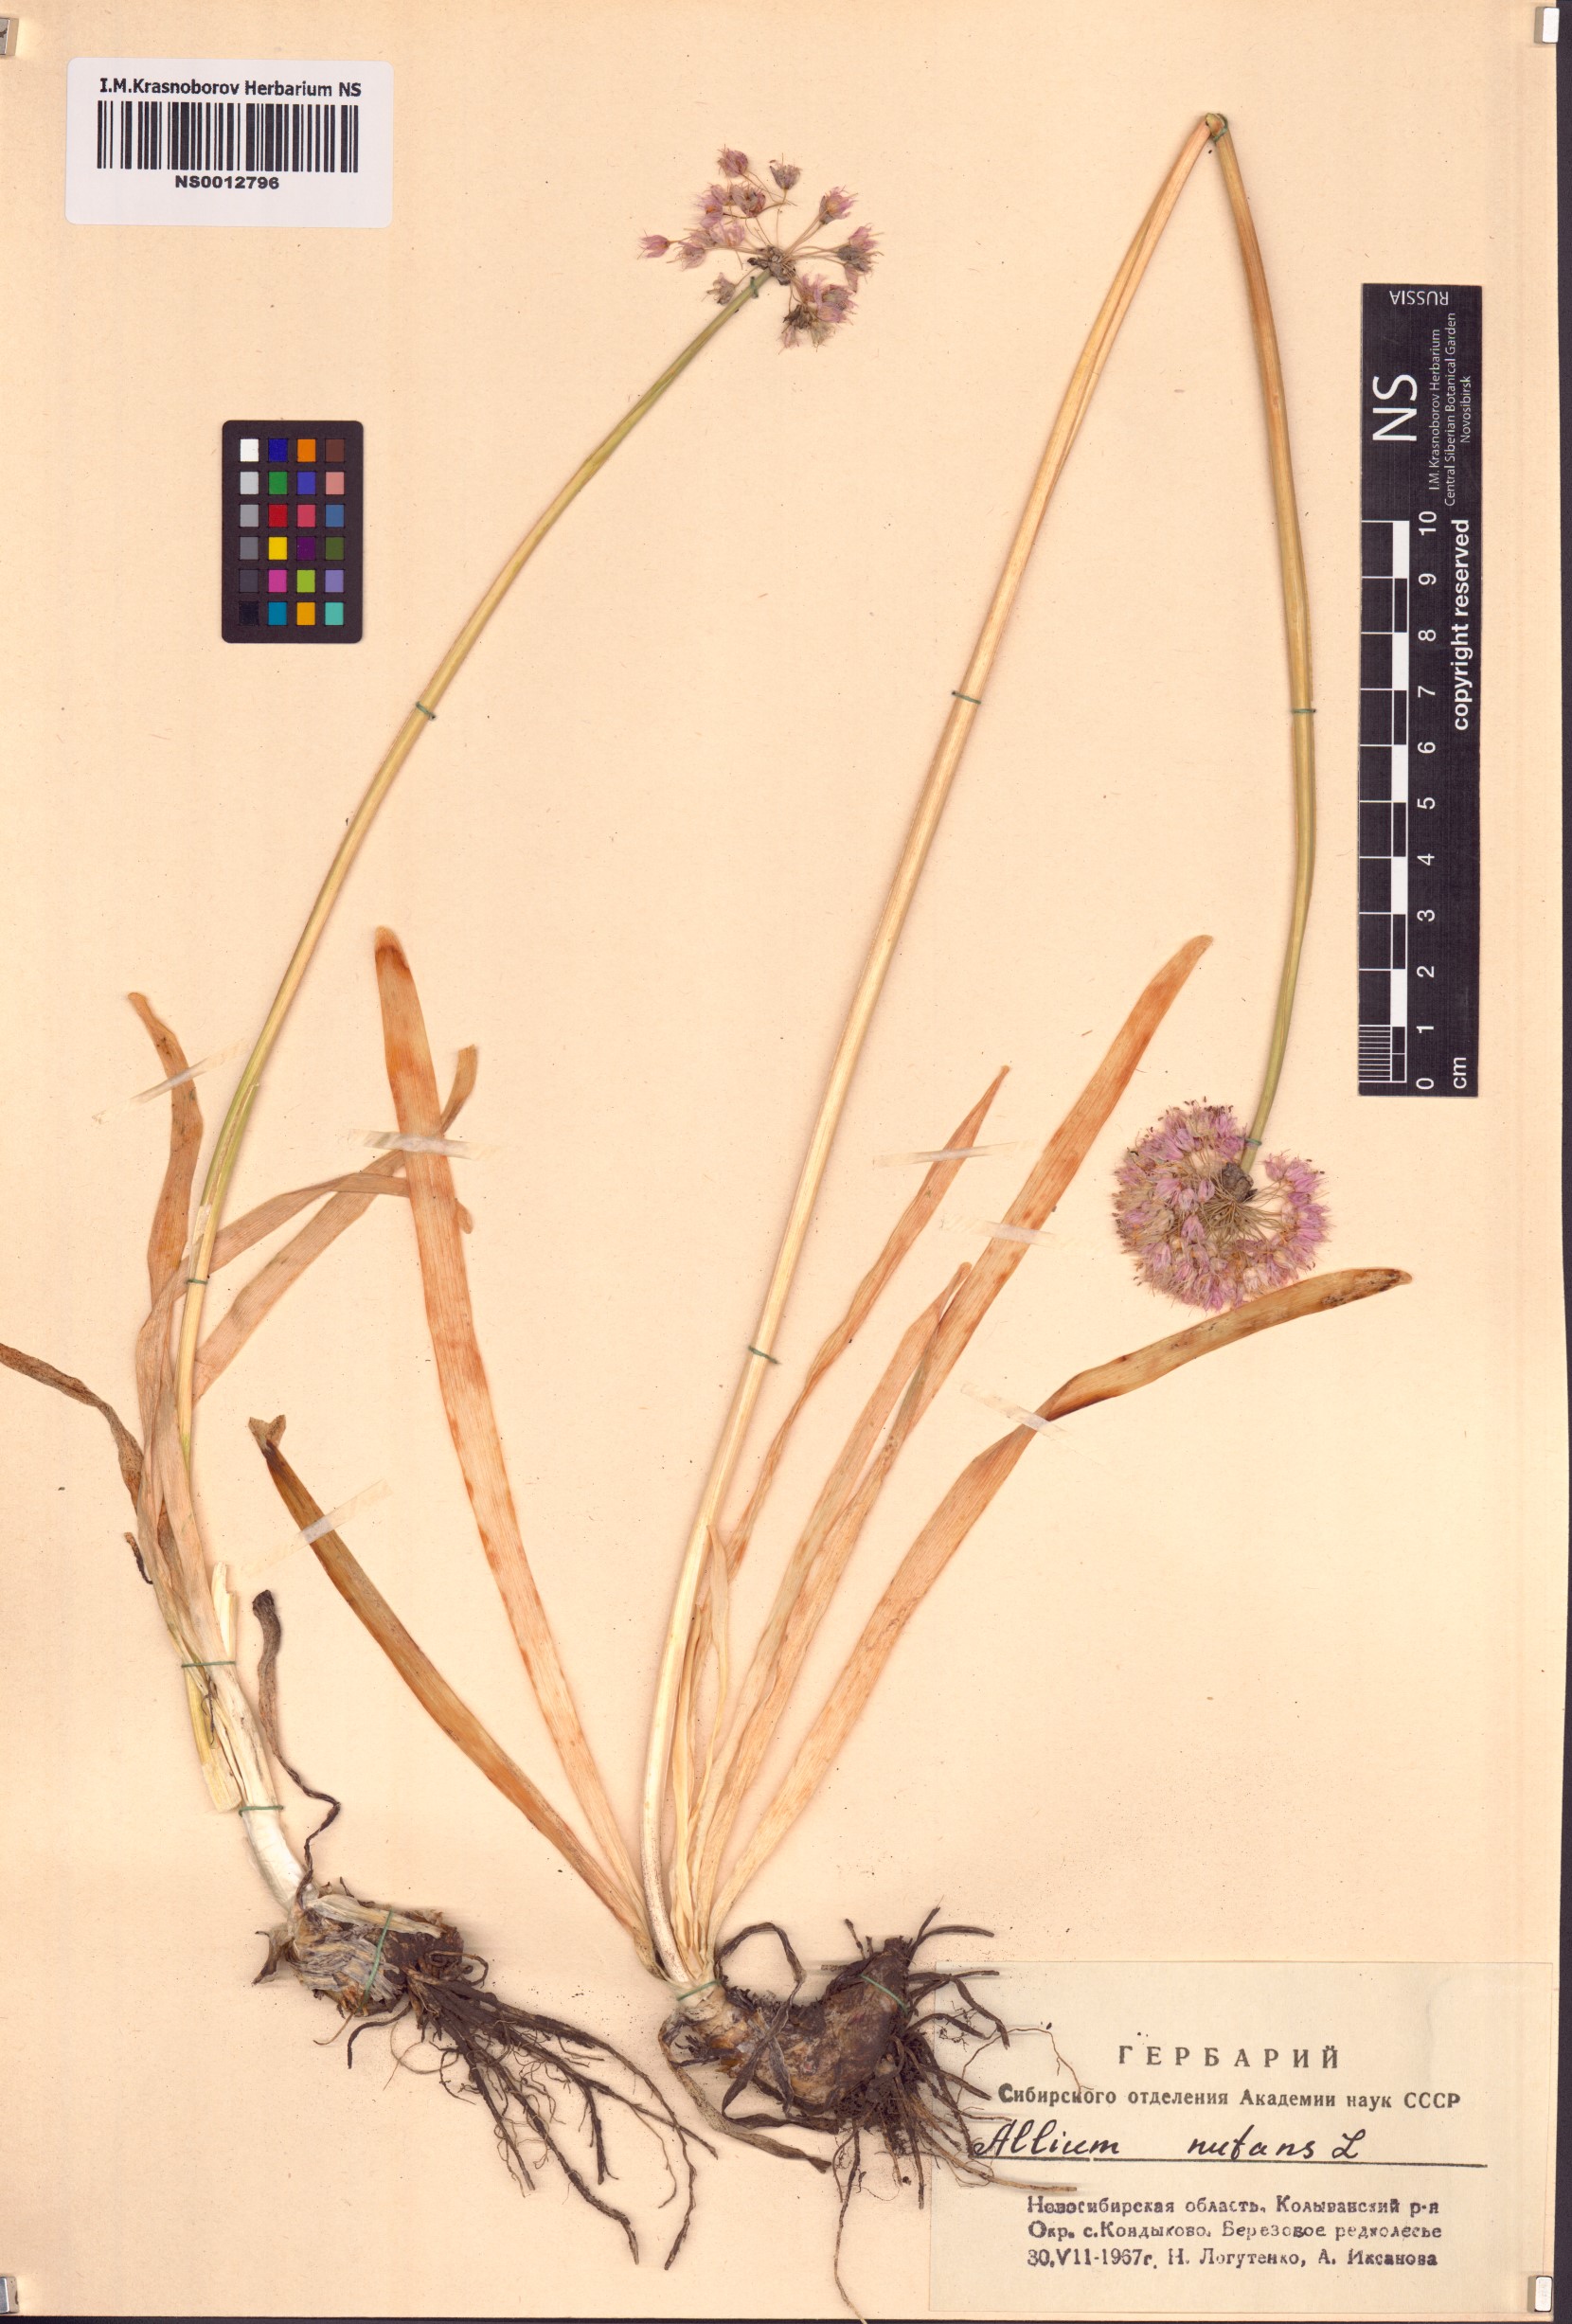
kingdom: Plantae
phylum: Tracheophyta
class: Liliopsida
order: Asparagales
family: Amaryllidaceae
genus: Allium
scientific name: Allium nutans
